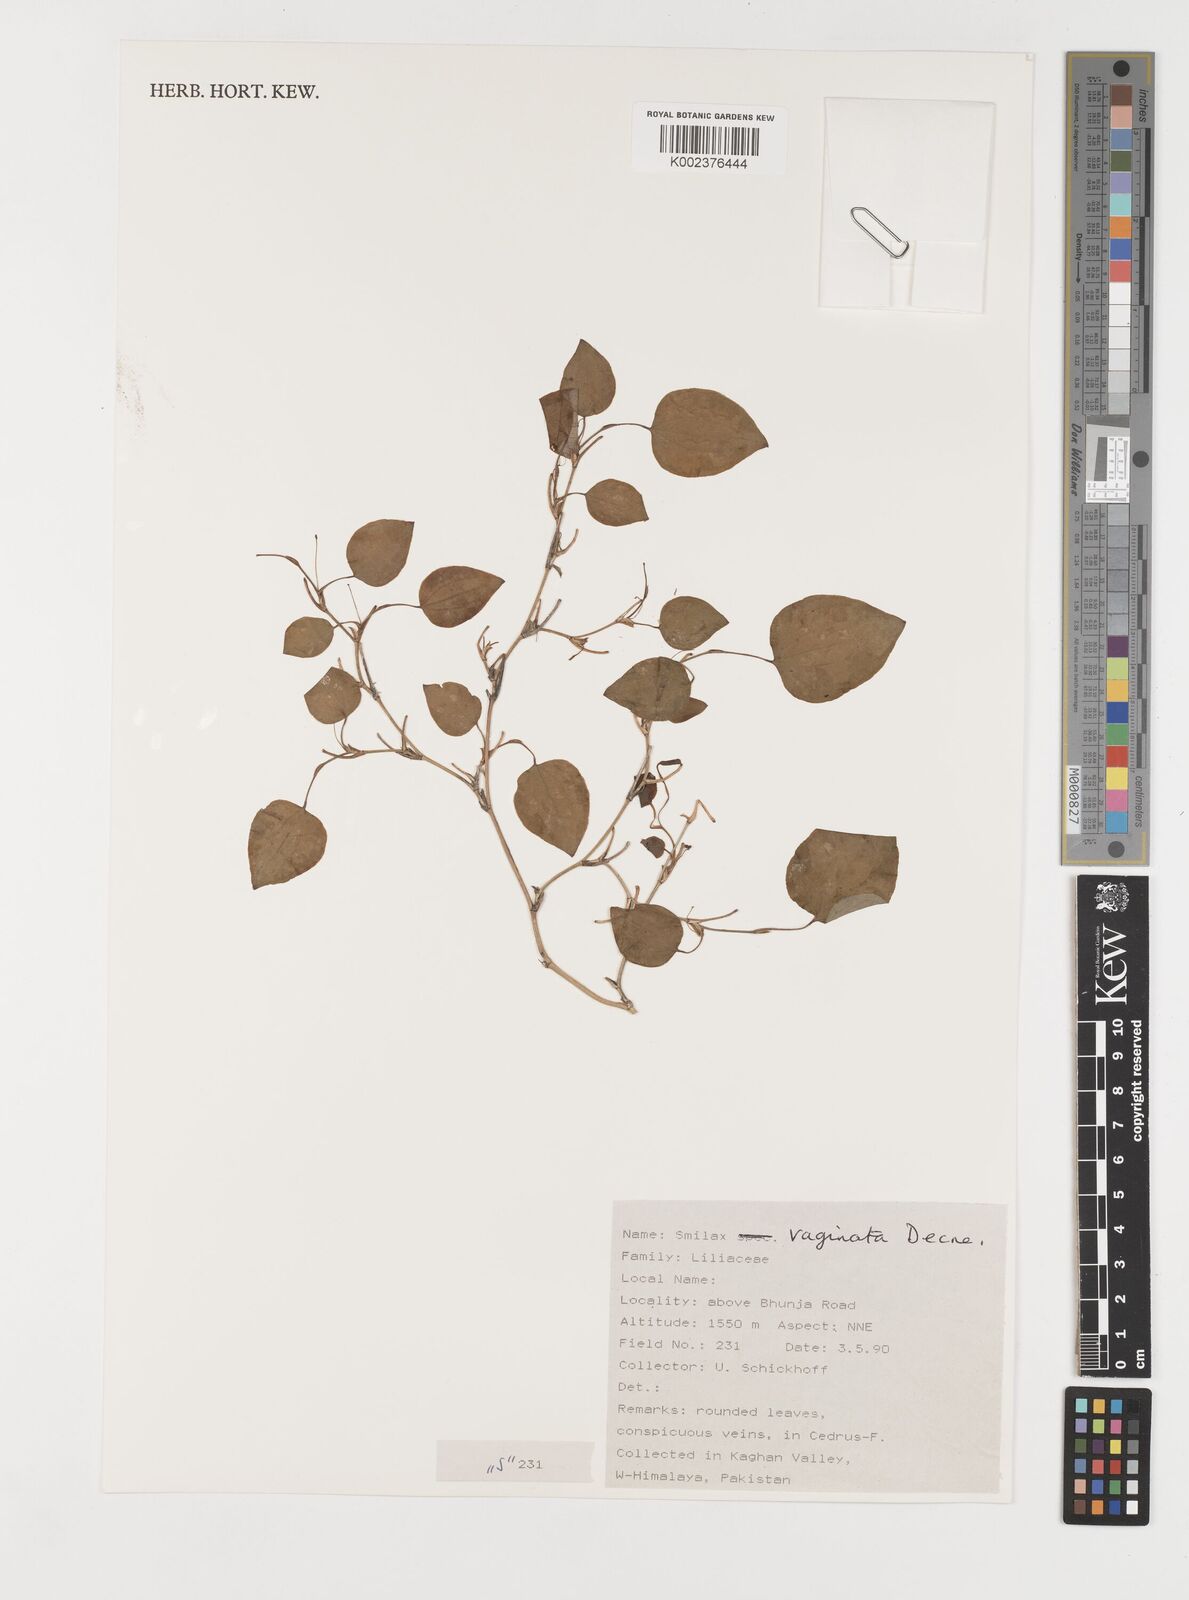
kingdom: Plantae
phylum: Tracheophyta
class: Liliopsida
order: Liliales
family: Smilacaceae
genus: Smilax
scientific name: Smilax vaginata
